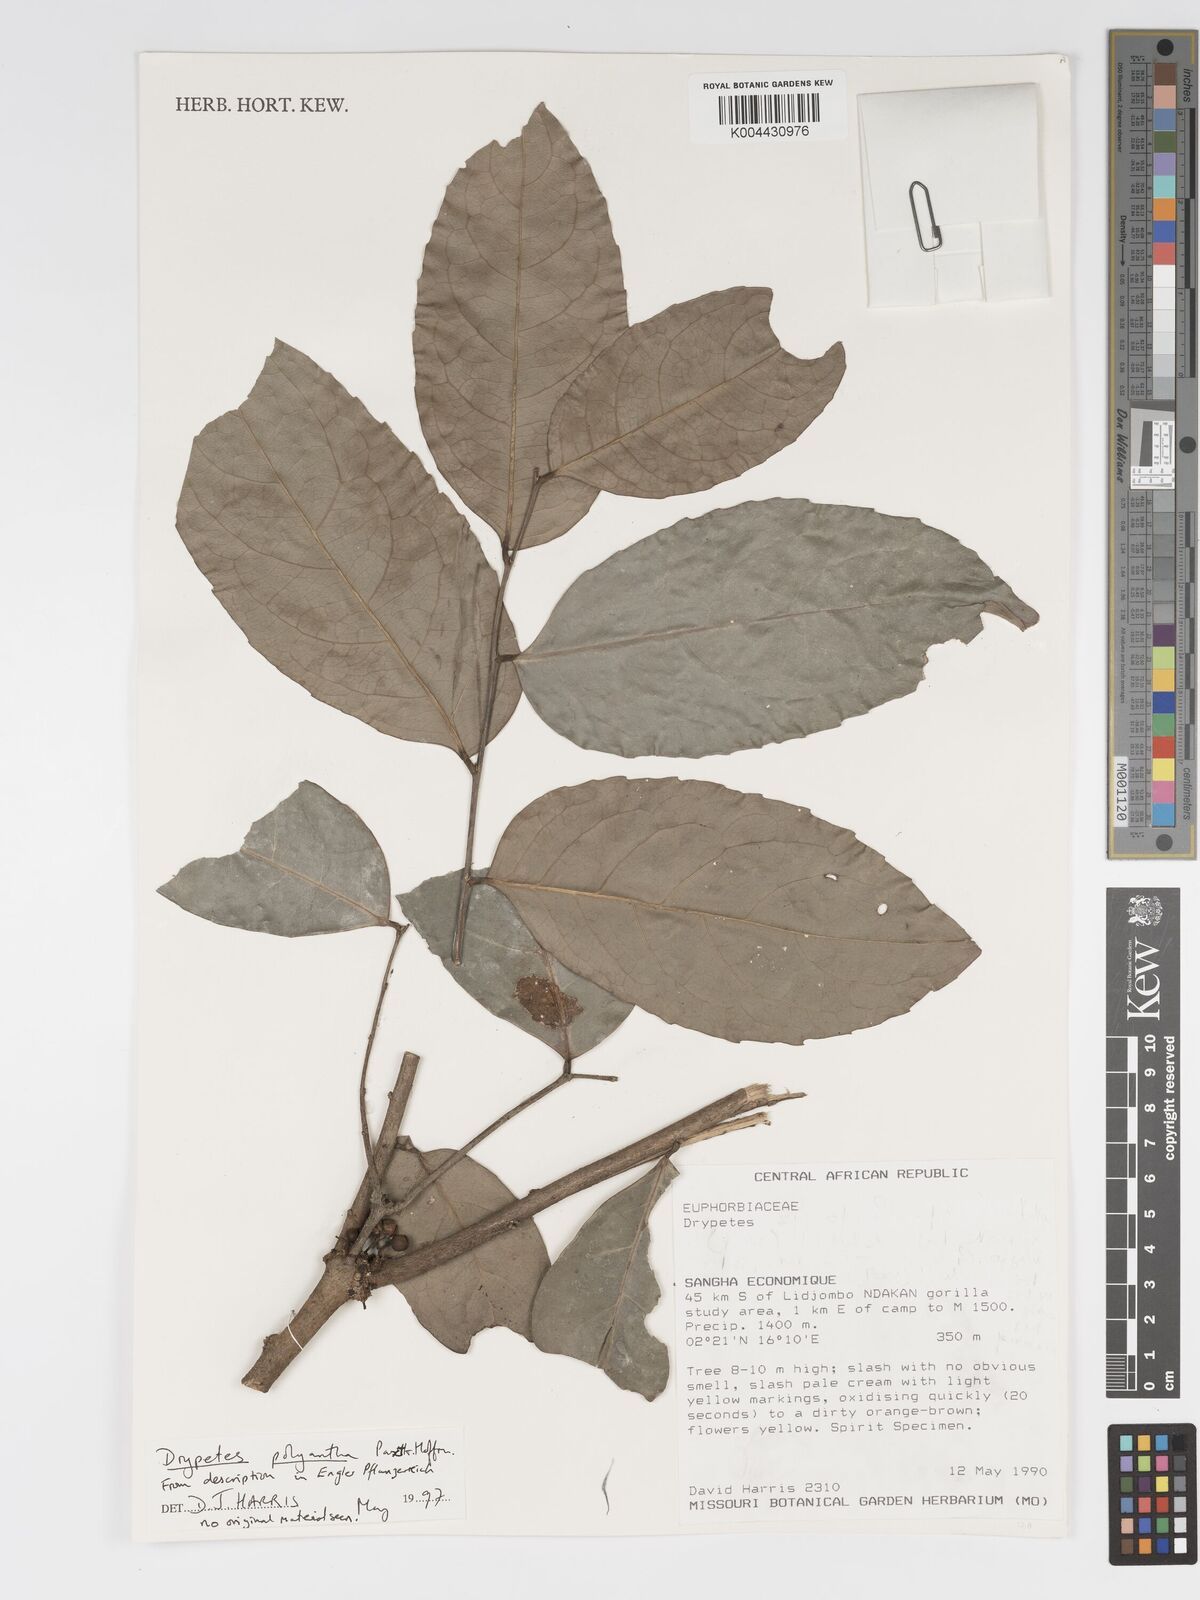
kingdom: Plantae
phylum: Tracheophyta
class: Magnoliopsida
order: Malpighiales
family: Putranjivaceae
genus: Drypetes
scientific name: Drypetes polyantha
